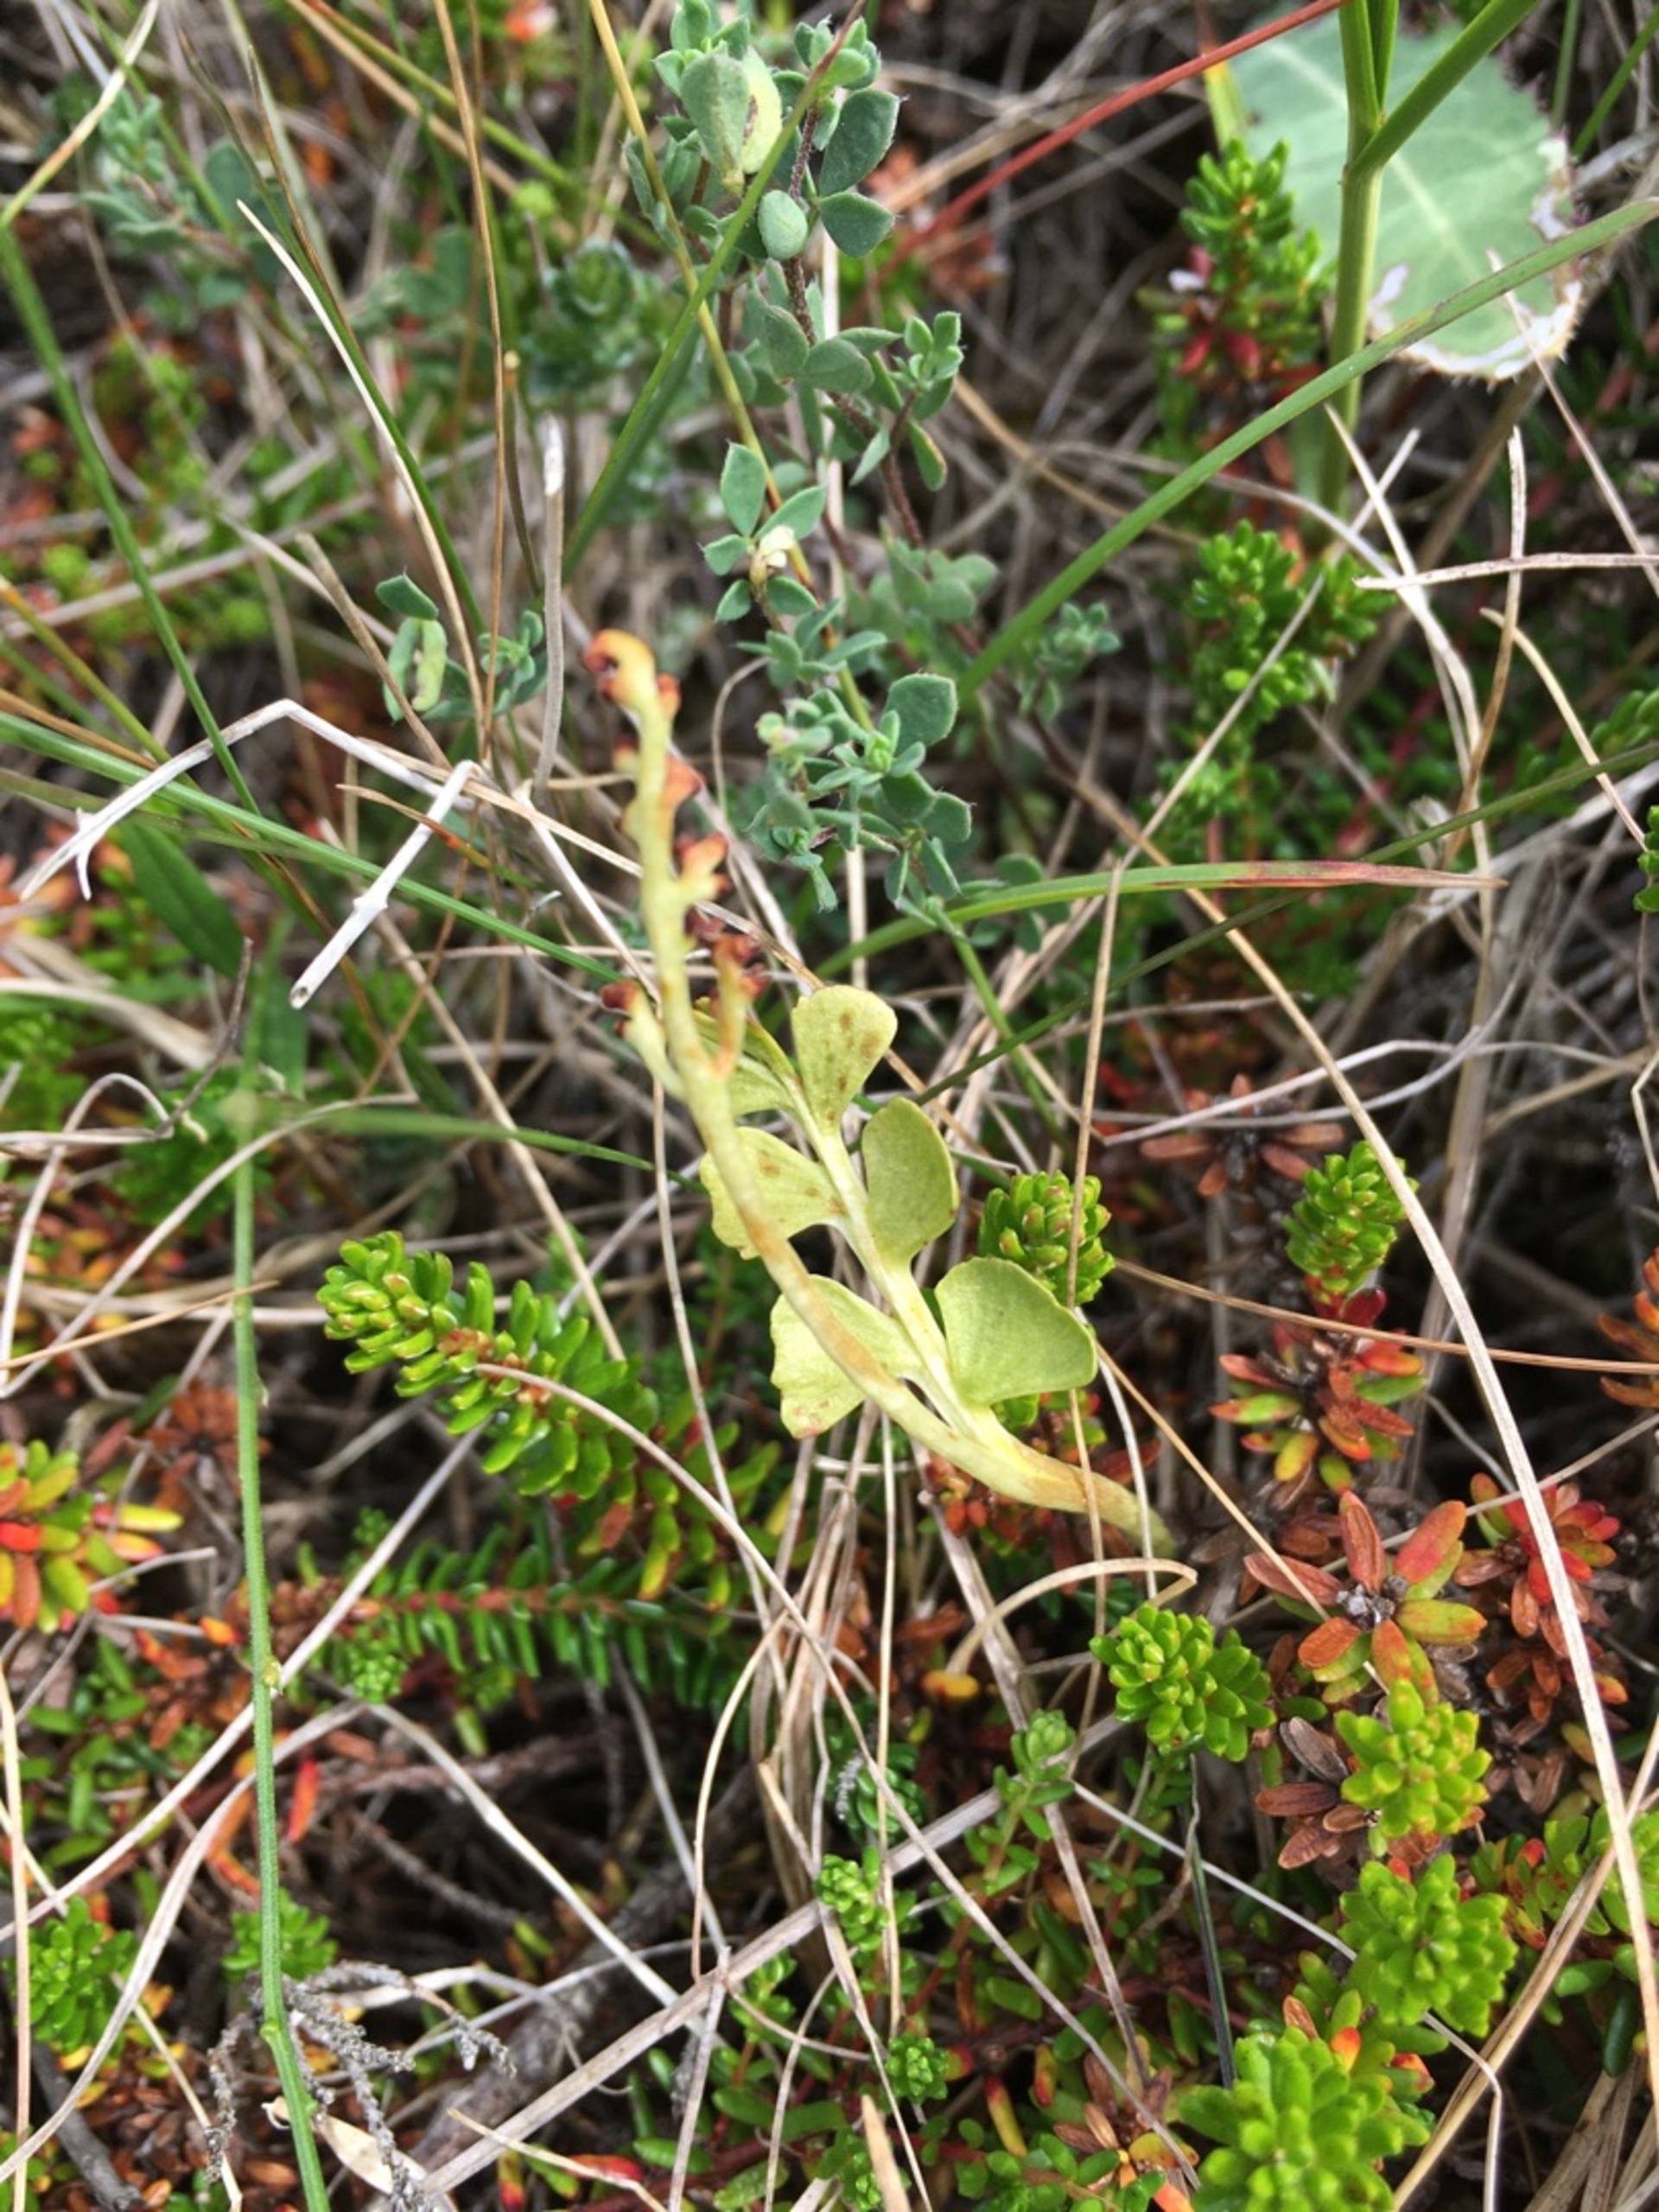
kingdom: Plantae
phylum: Tracheophyta
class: Polypodiopsida
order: Ophioglossales
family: Ophioglossaceae
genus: Botrychium
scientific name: Botrychium lunaria
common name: Almindelig månerude
